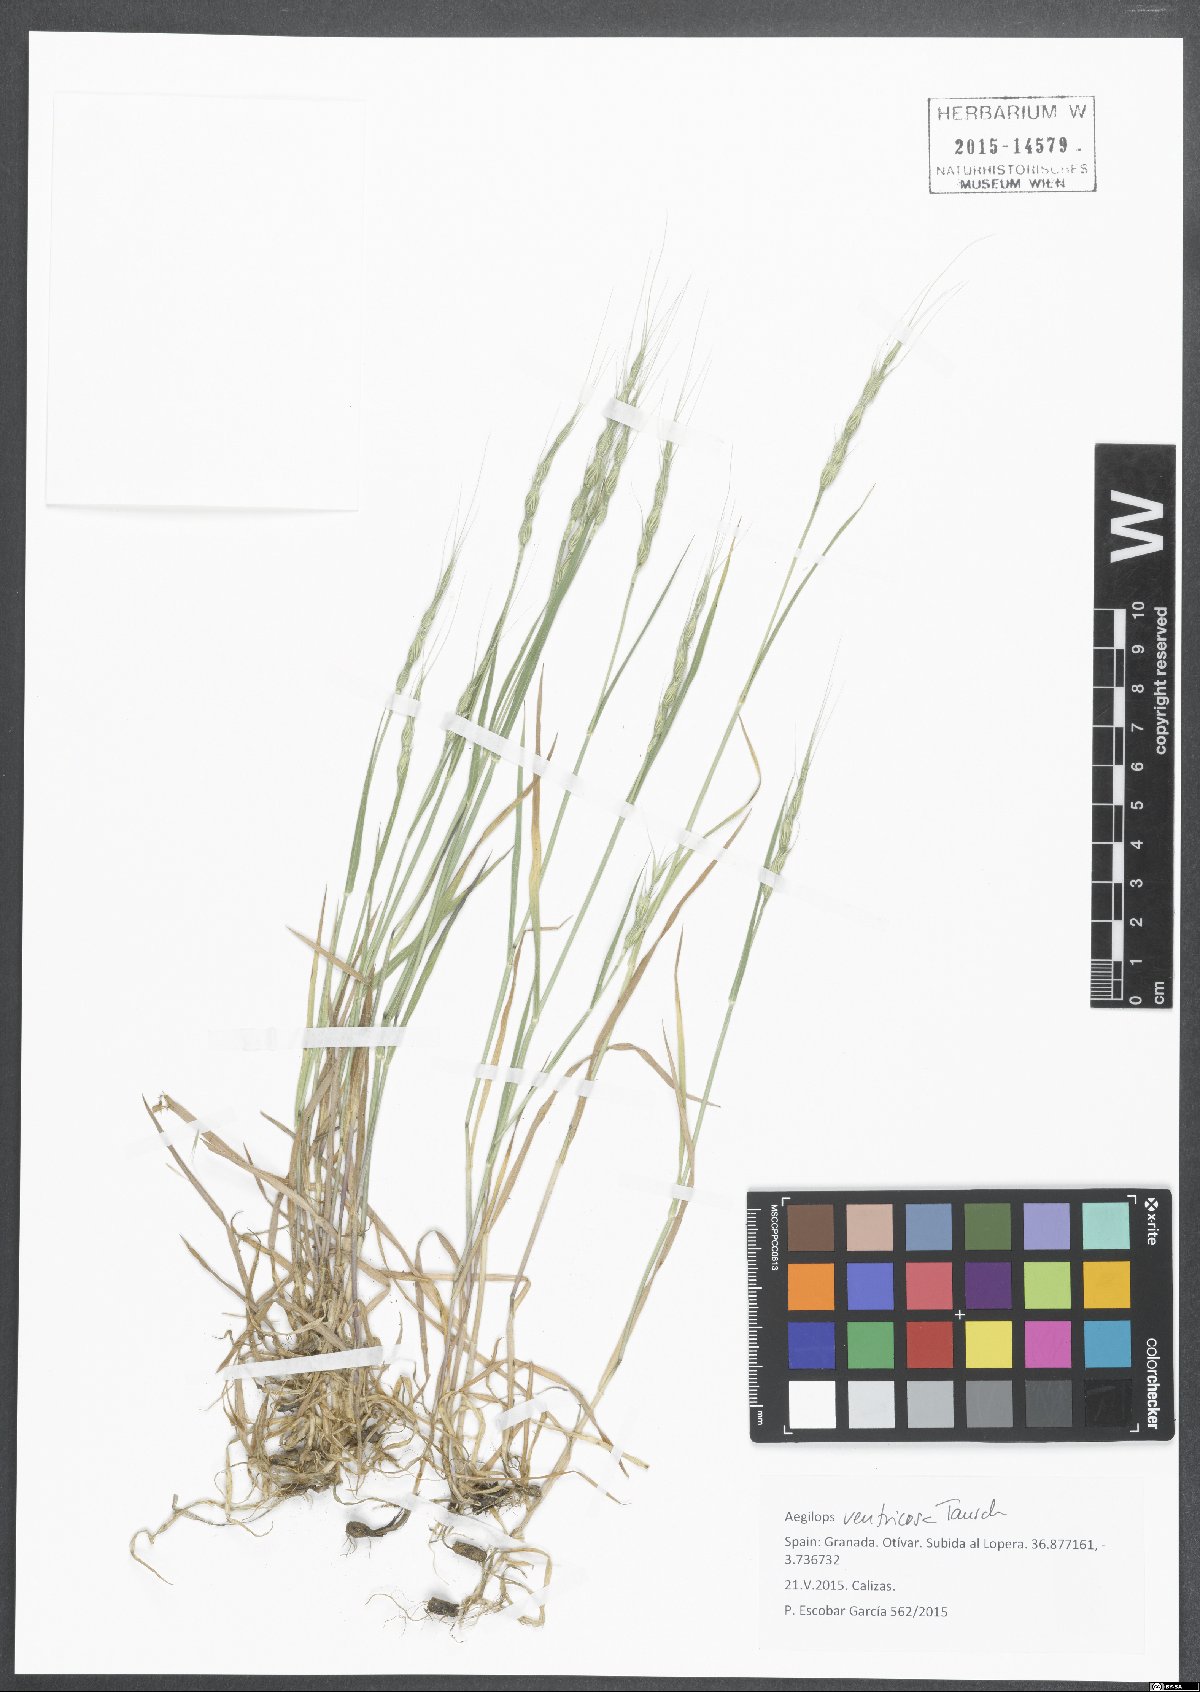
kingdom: Plantae
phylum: Tracheophyta
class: Liliopsida
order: Poales
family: Poaceae
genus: Aegilops
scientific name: Aegilops ventricosa
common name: Swollen goat grass
